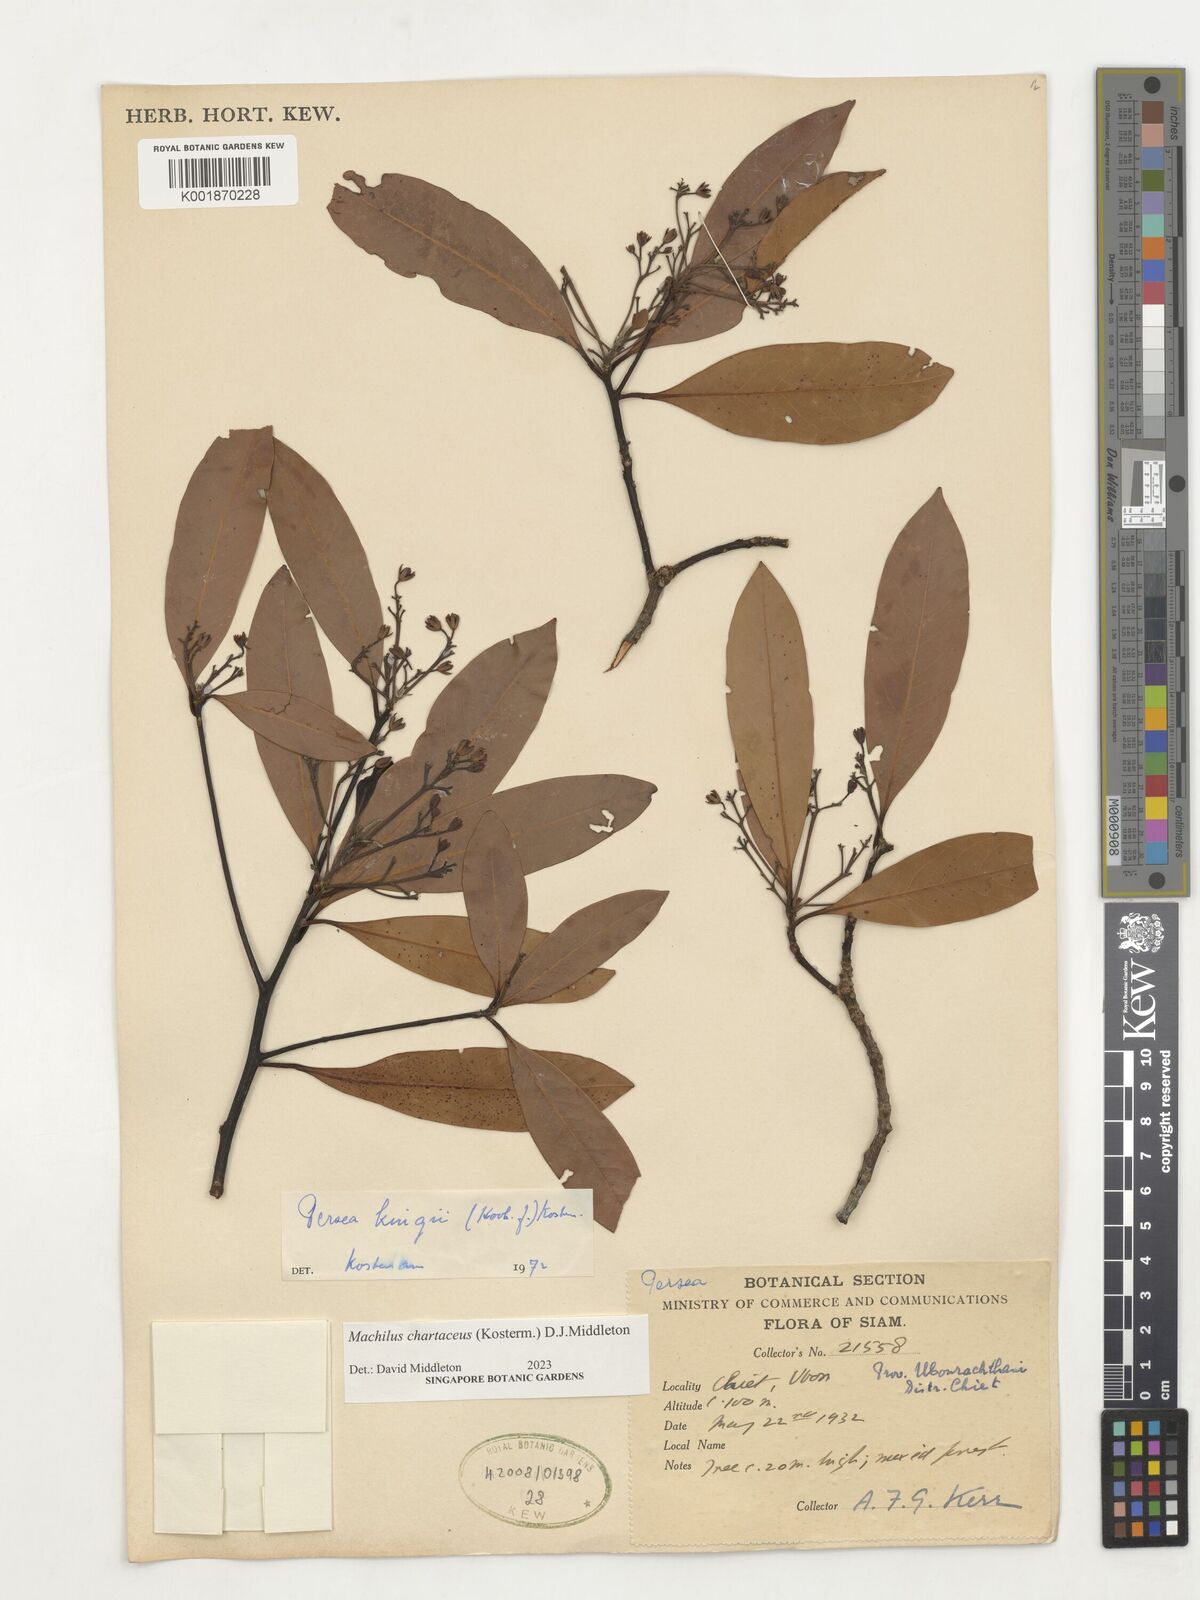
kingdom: Plantae
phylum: Tracheophyta
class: Magnoliopsida
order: Laurales
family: Lauraceae
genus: Machilus
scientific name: Machilus
